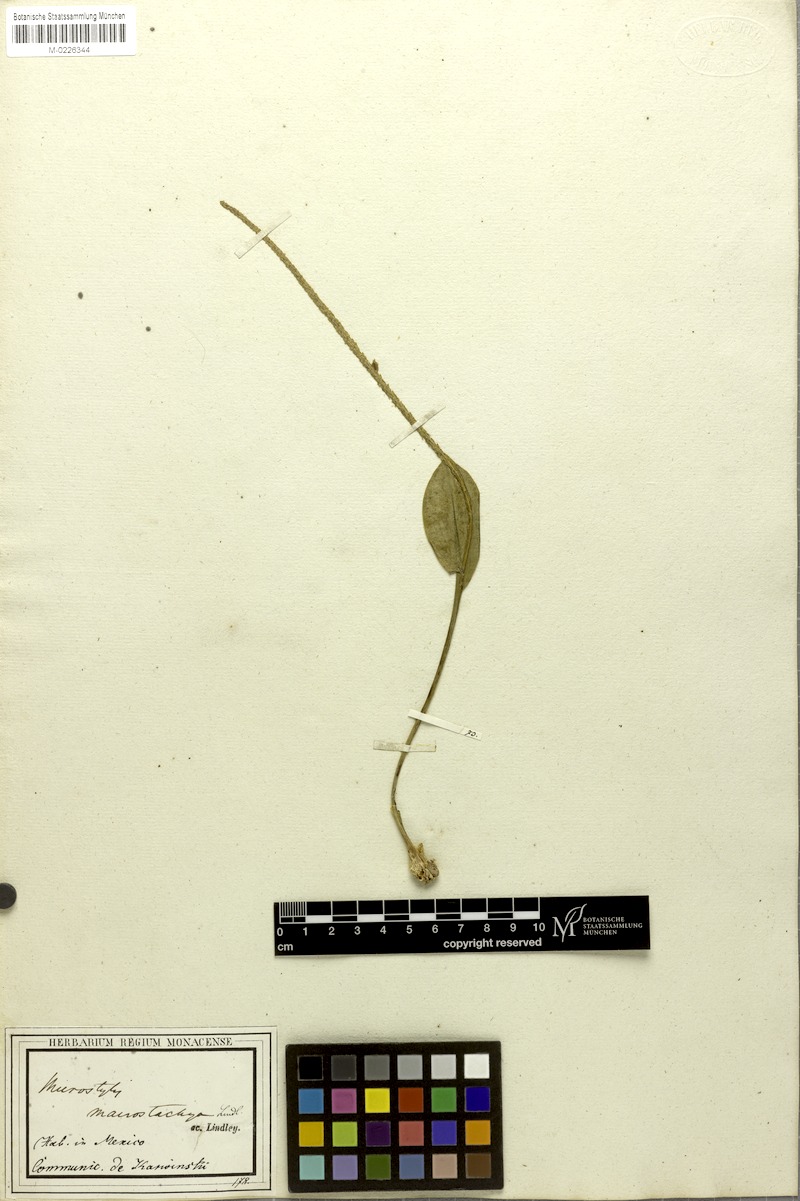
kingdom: Plantae
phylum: Tracheophyta
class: Liliopsida
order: Asparagales
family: Orchidaceae
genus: Malaxis
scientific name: Malaxis macrostachya
